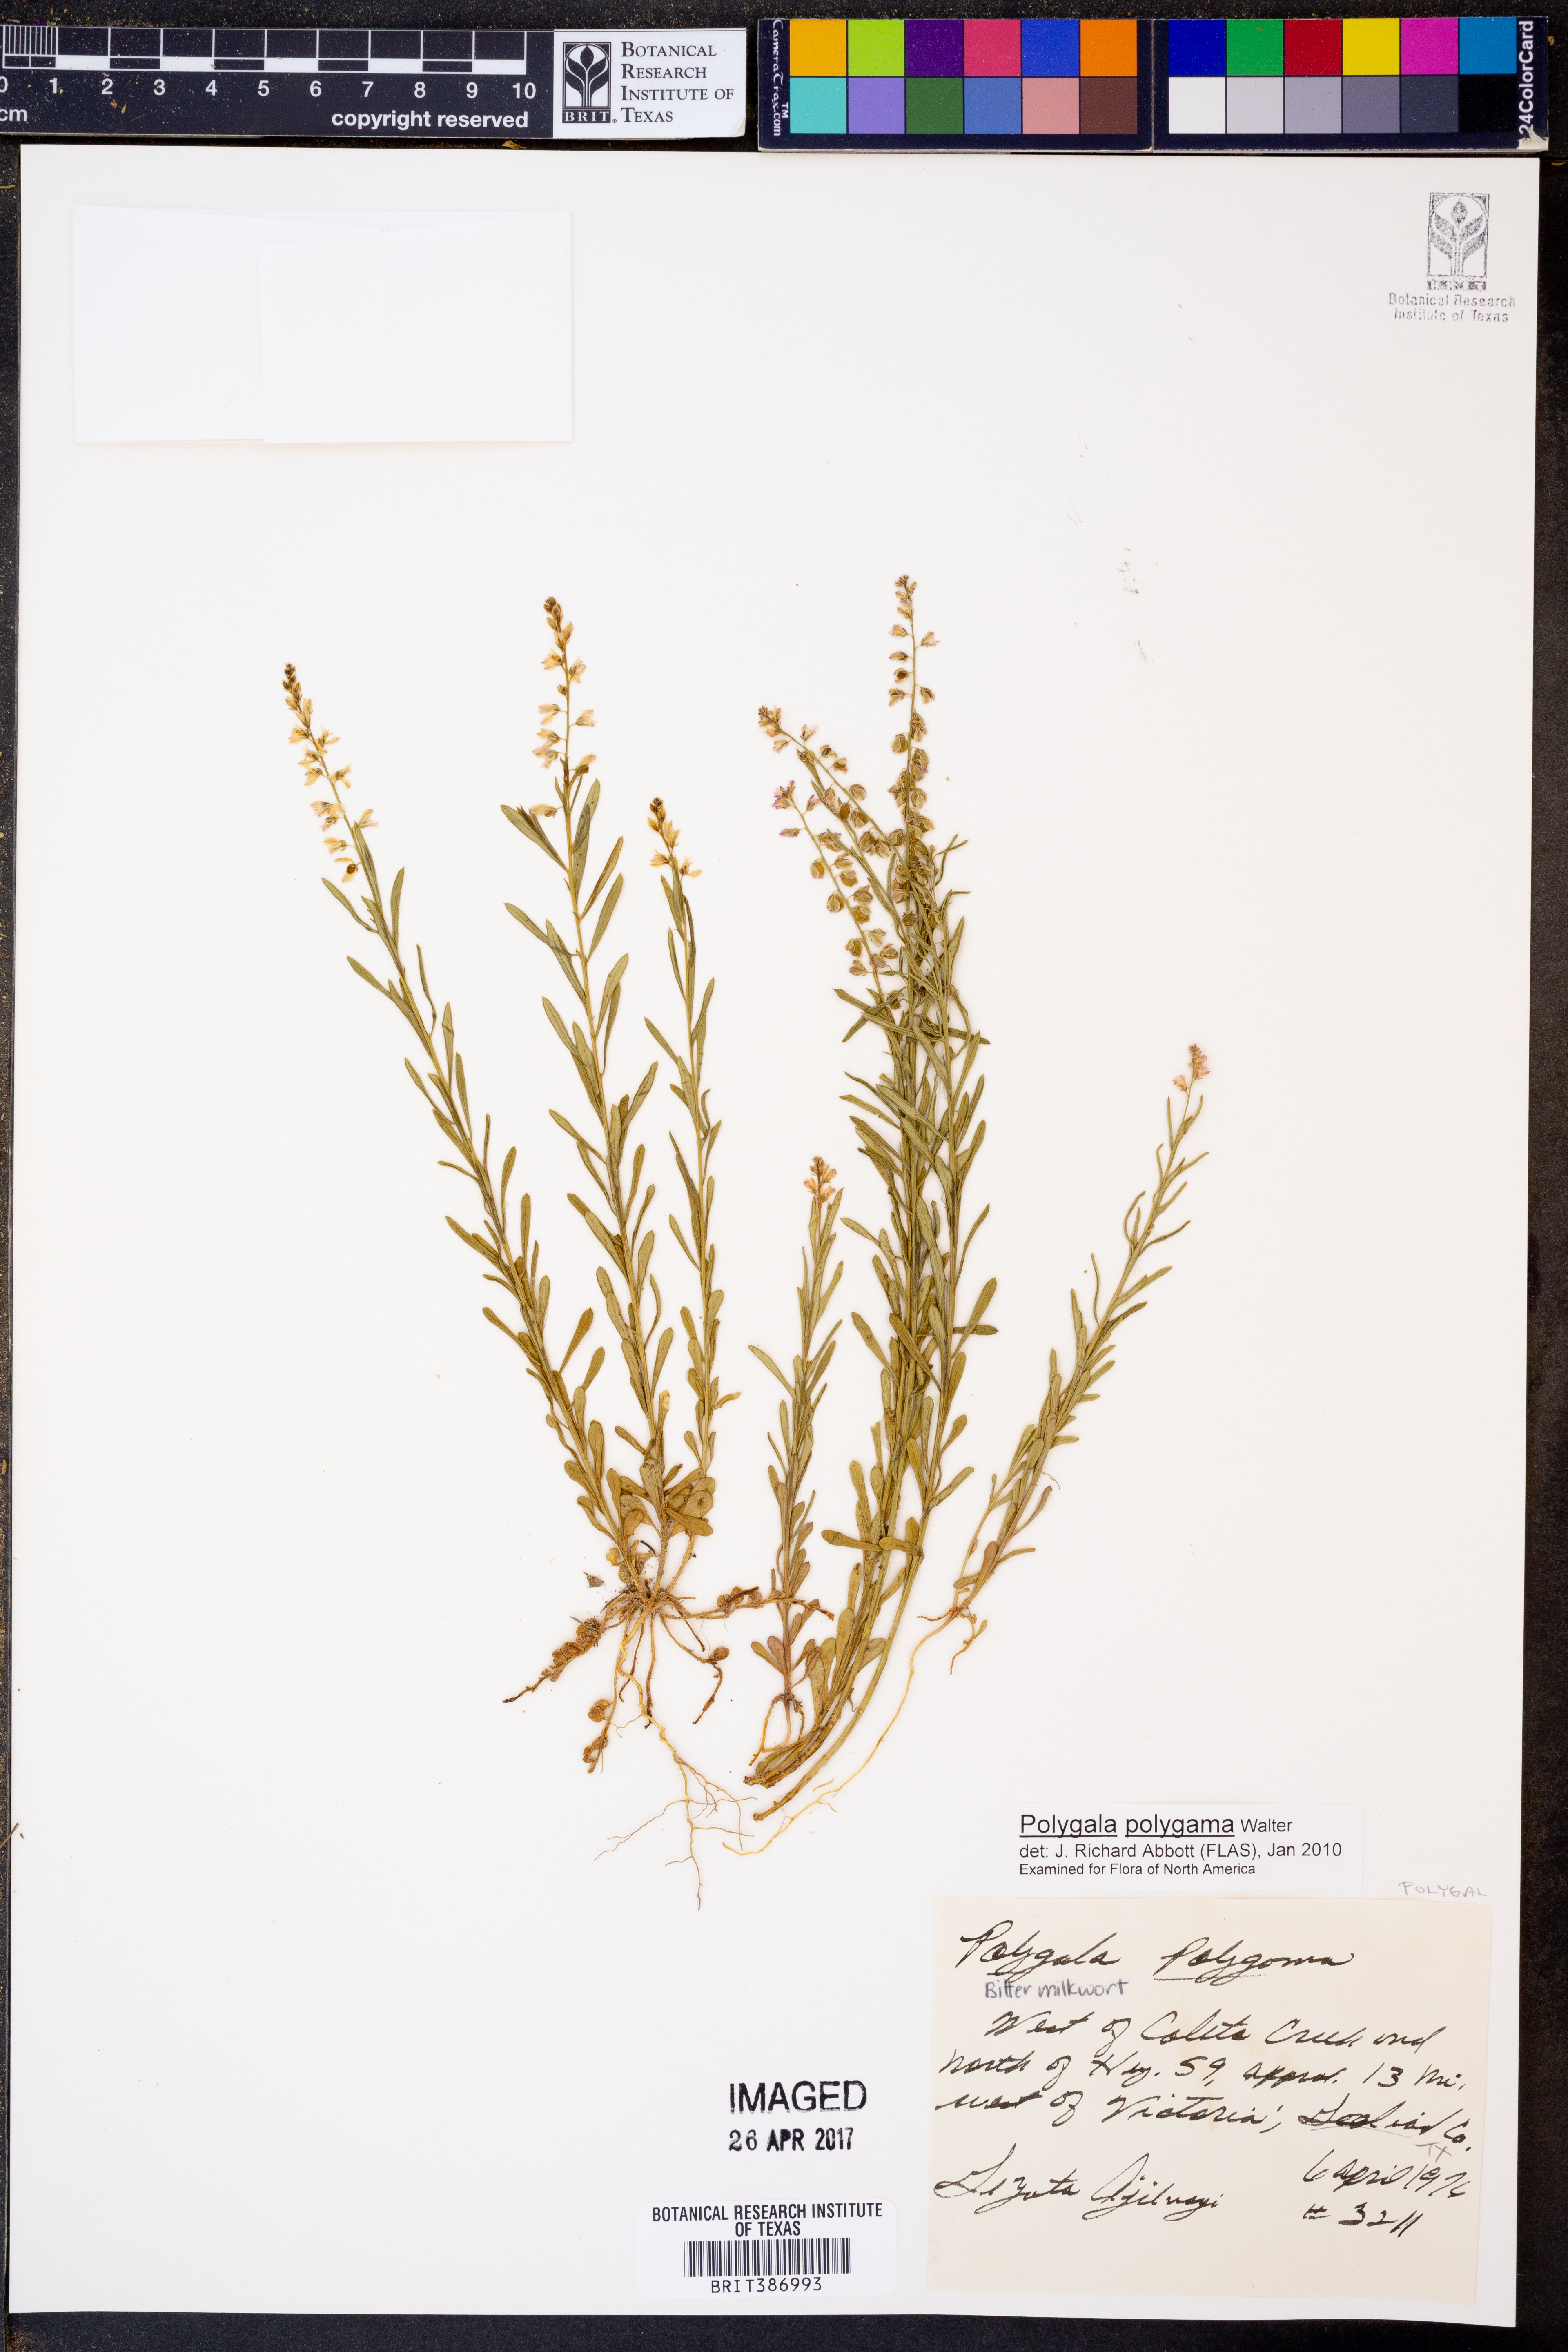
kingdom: Plantae
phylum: Tracheophyta
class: Magnoliopsida
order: Fabales
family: Polygalaceae
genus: Polygala
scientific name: Polygala polygama
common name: Bitter milkwort
